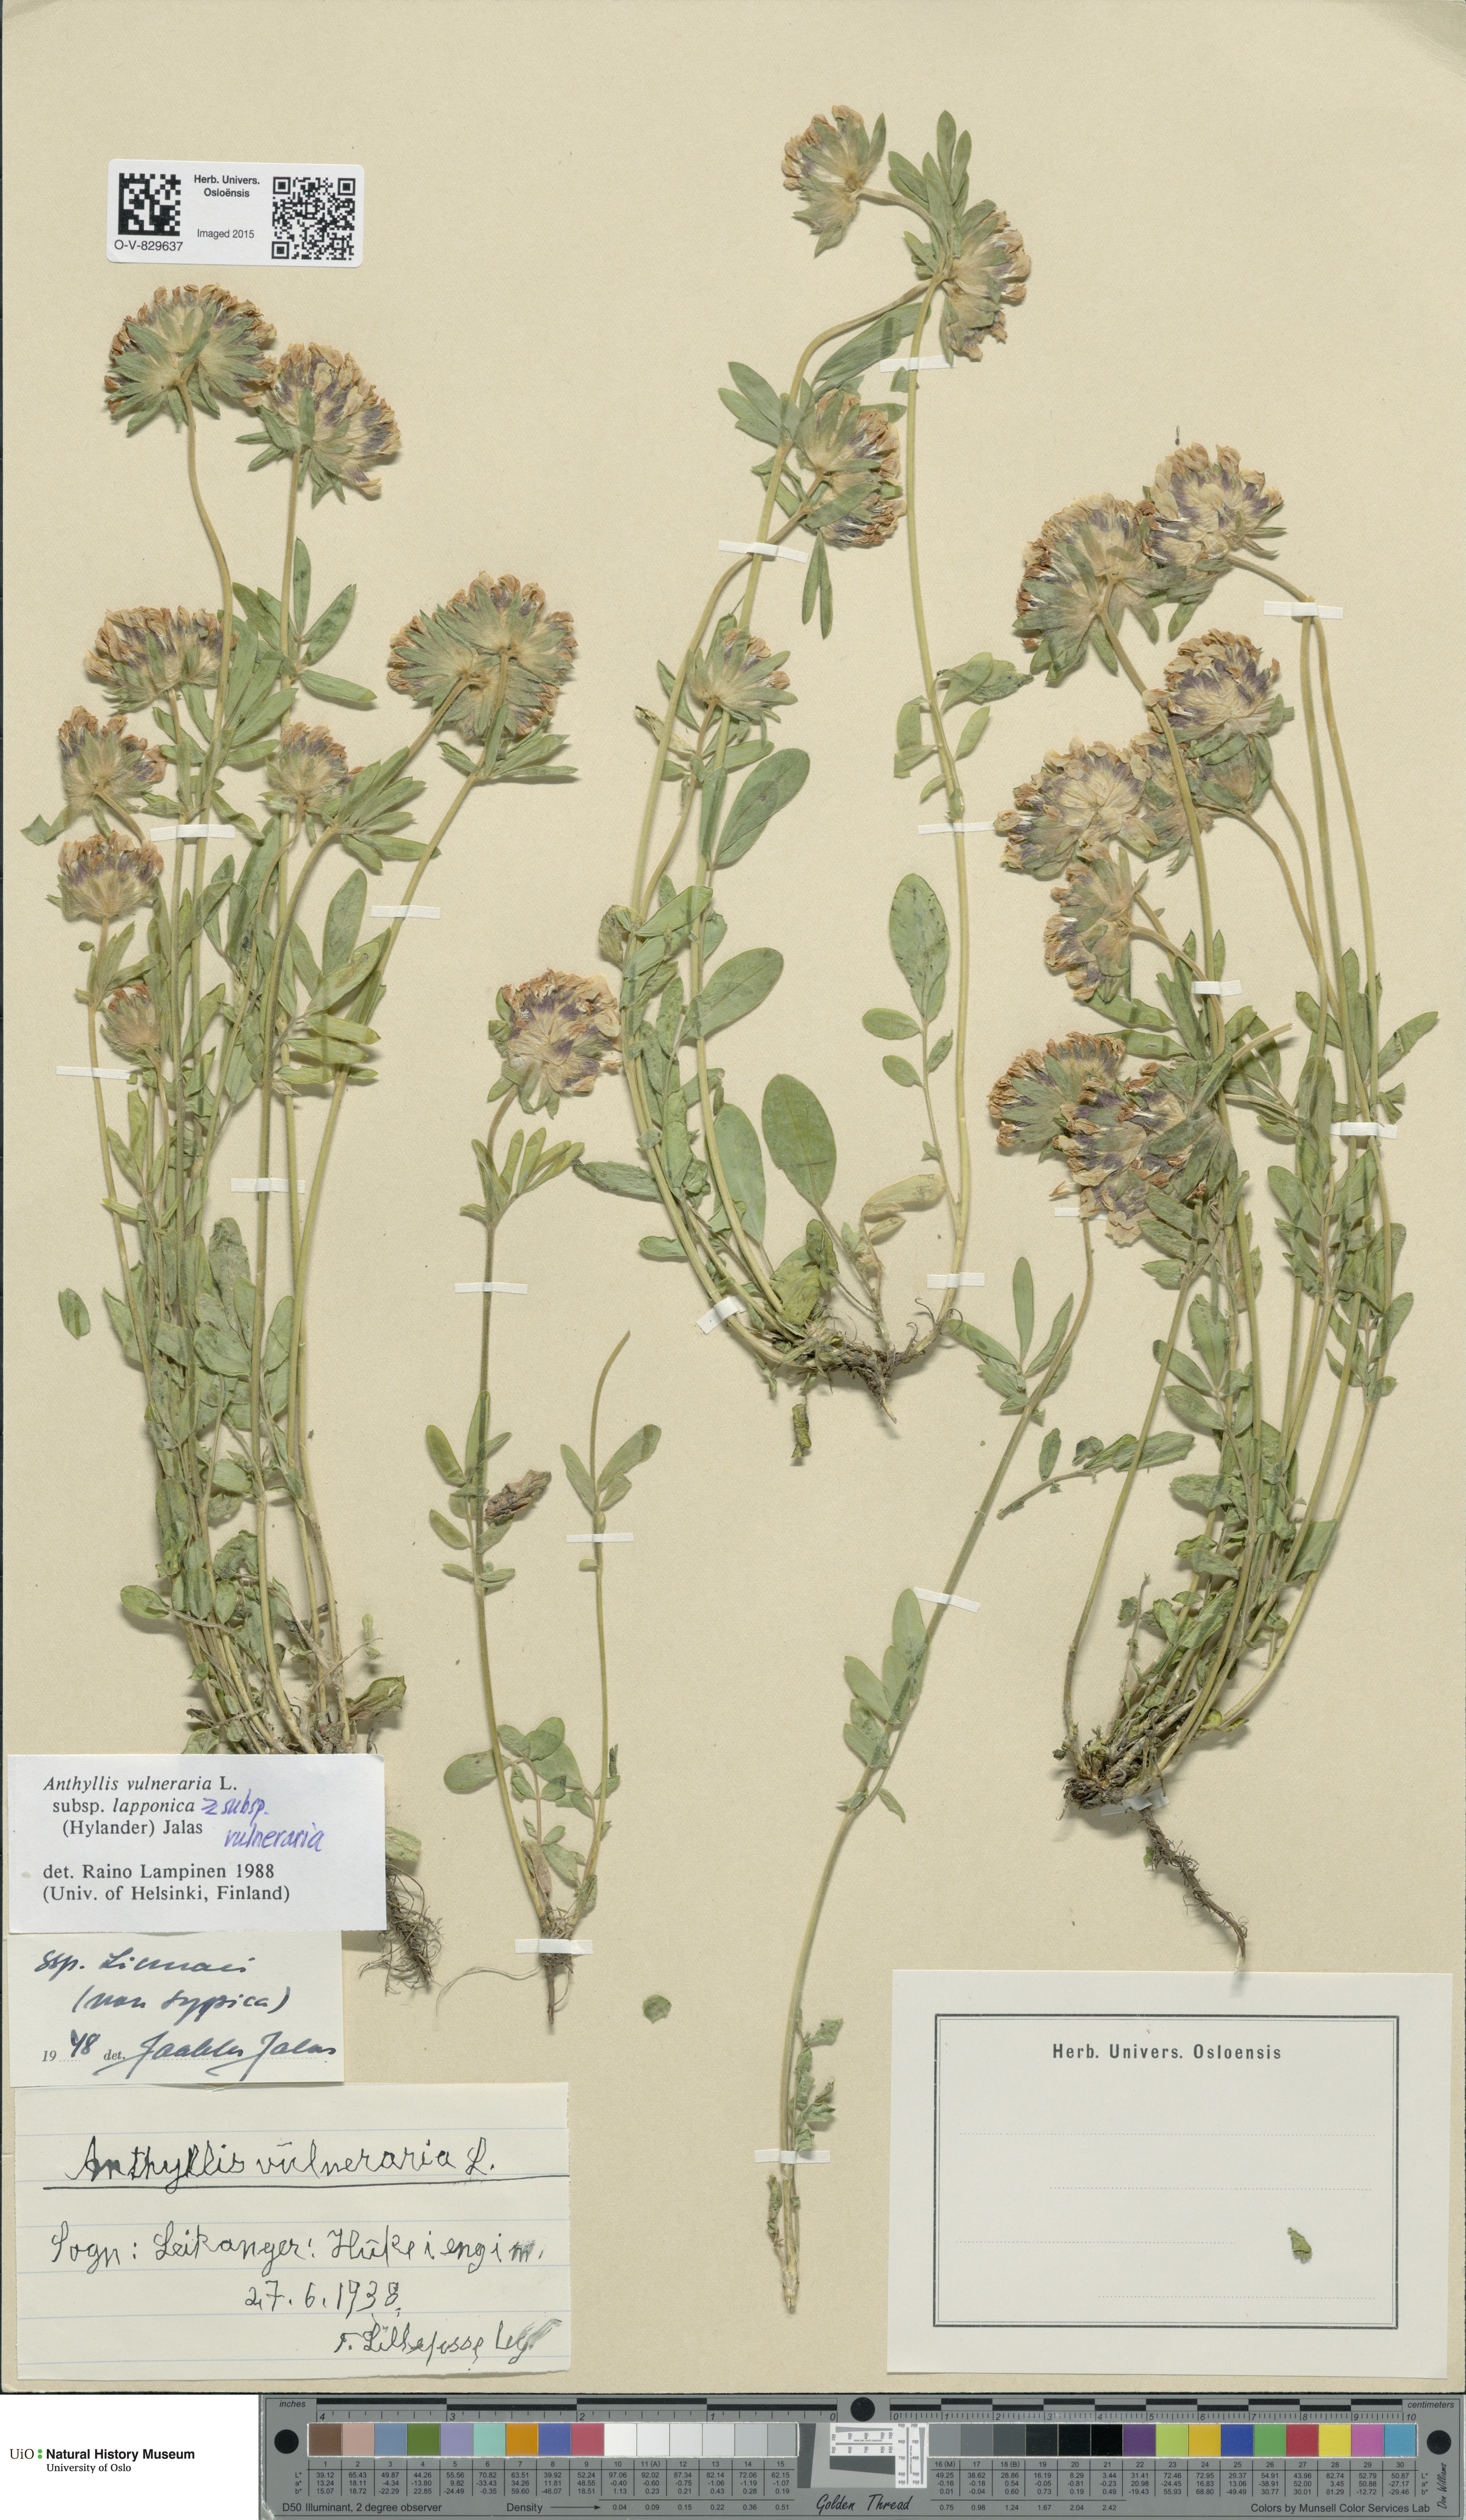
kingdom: Plantae
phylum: Tracheophyta
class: Magnoliopsida
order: Fabales
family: Fabaceae
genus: Anthyllis
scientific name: Anthyllis
